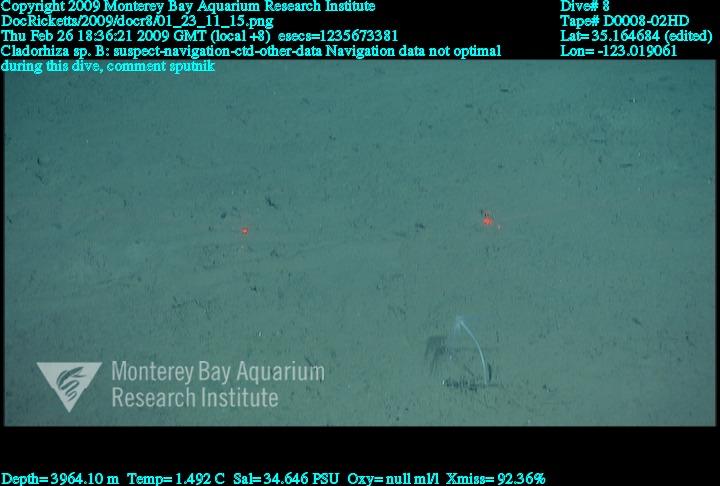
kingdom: Animalia
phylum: Porifera
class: Demospongiae
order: Poecilosclerida
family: Cladorhizidae
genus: Cladorhiza
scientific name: Cladorhiza
